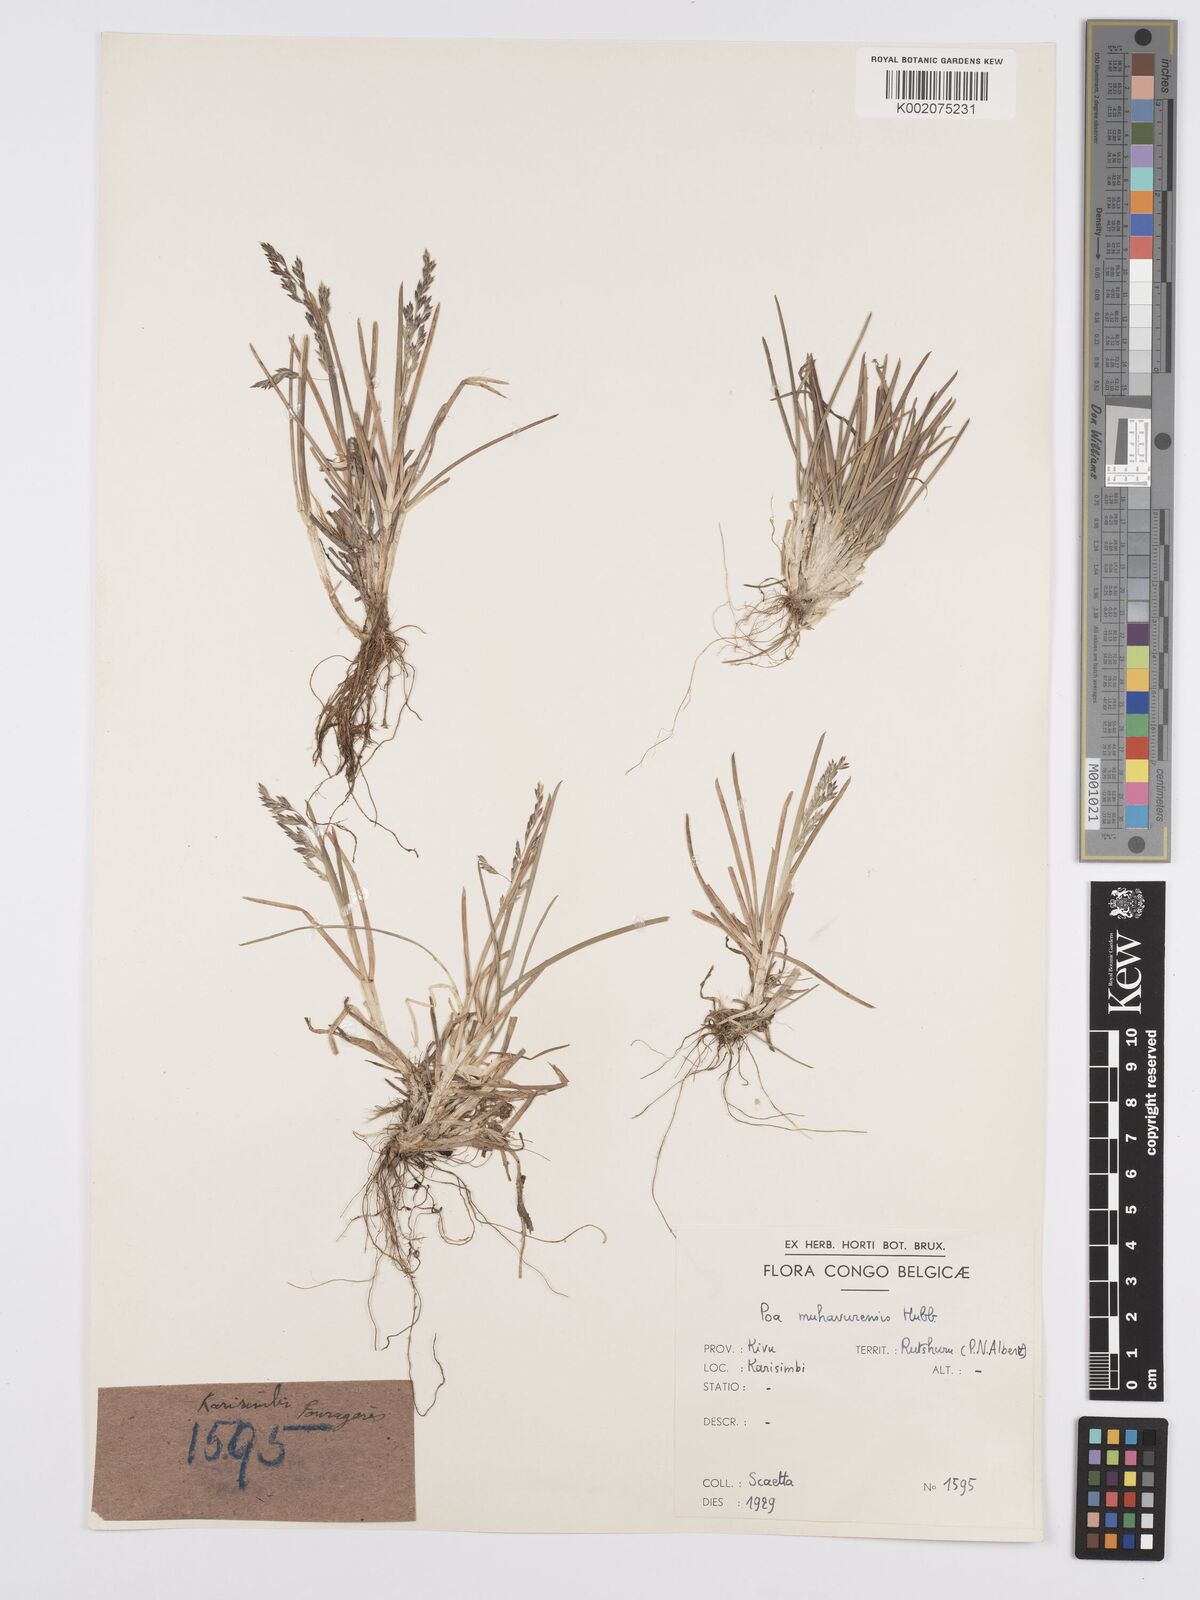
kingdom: Plantae
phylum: Tracheophyta
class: Liliopsida
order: Poales
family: Poaceae
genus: Poa
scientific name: Poa schimperiana
